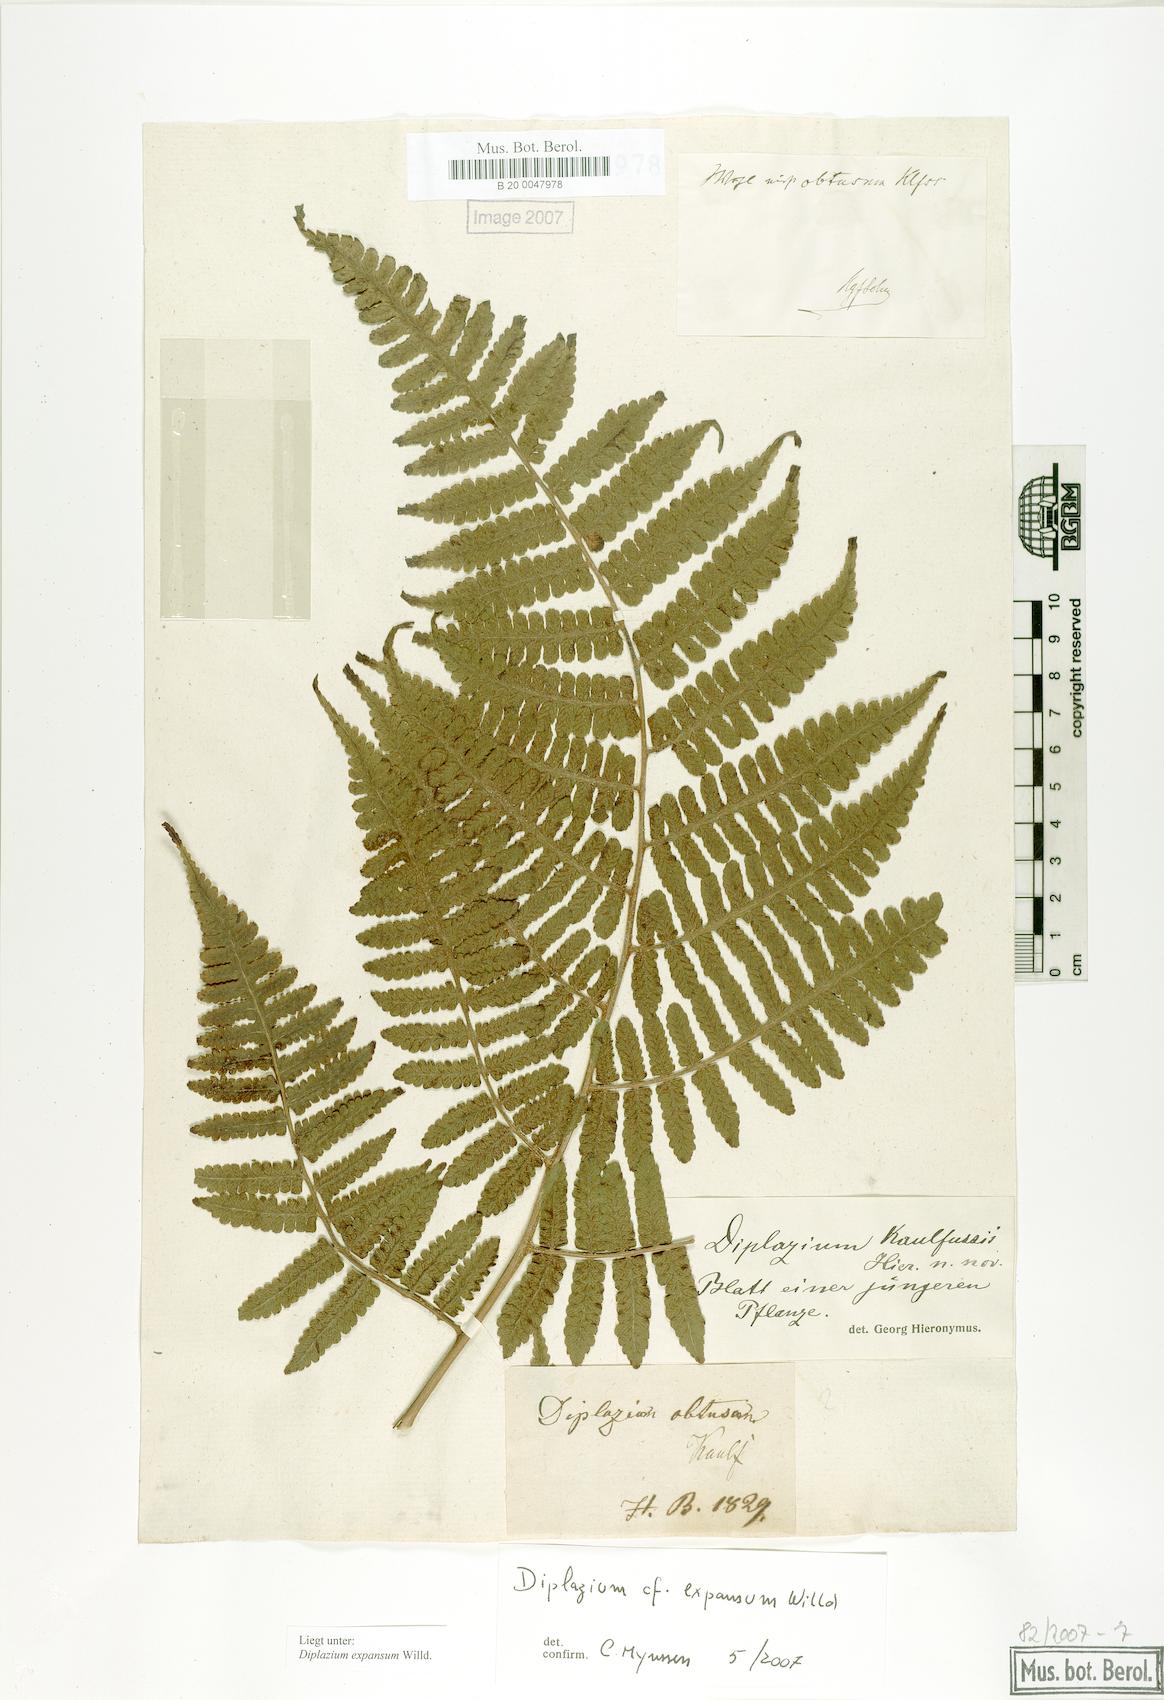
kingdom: Plantae
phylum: Tracheophyta
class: Polypodiopsida
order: Polypodiales
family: Athyriaceae
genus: Diplazium
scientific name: Diplazium expansum
